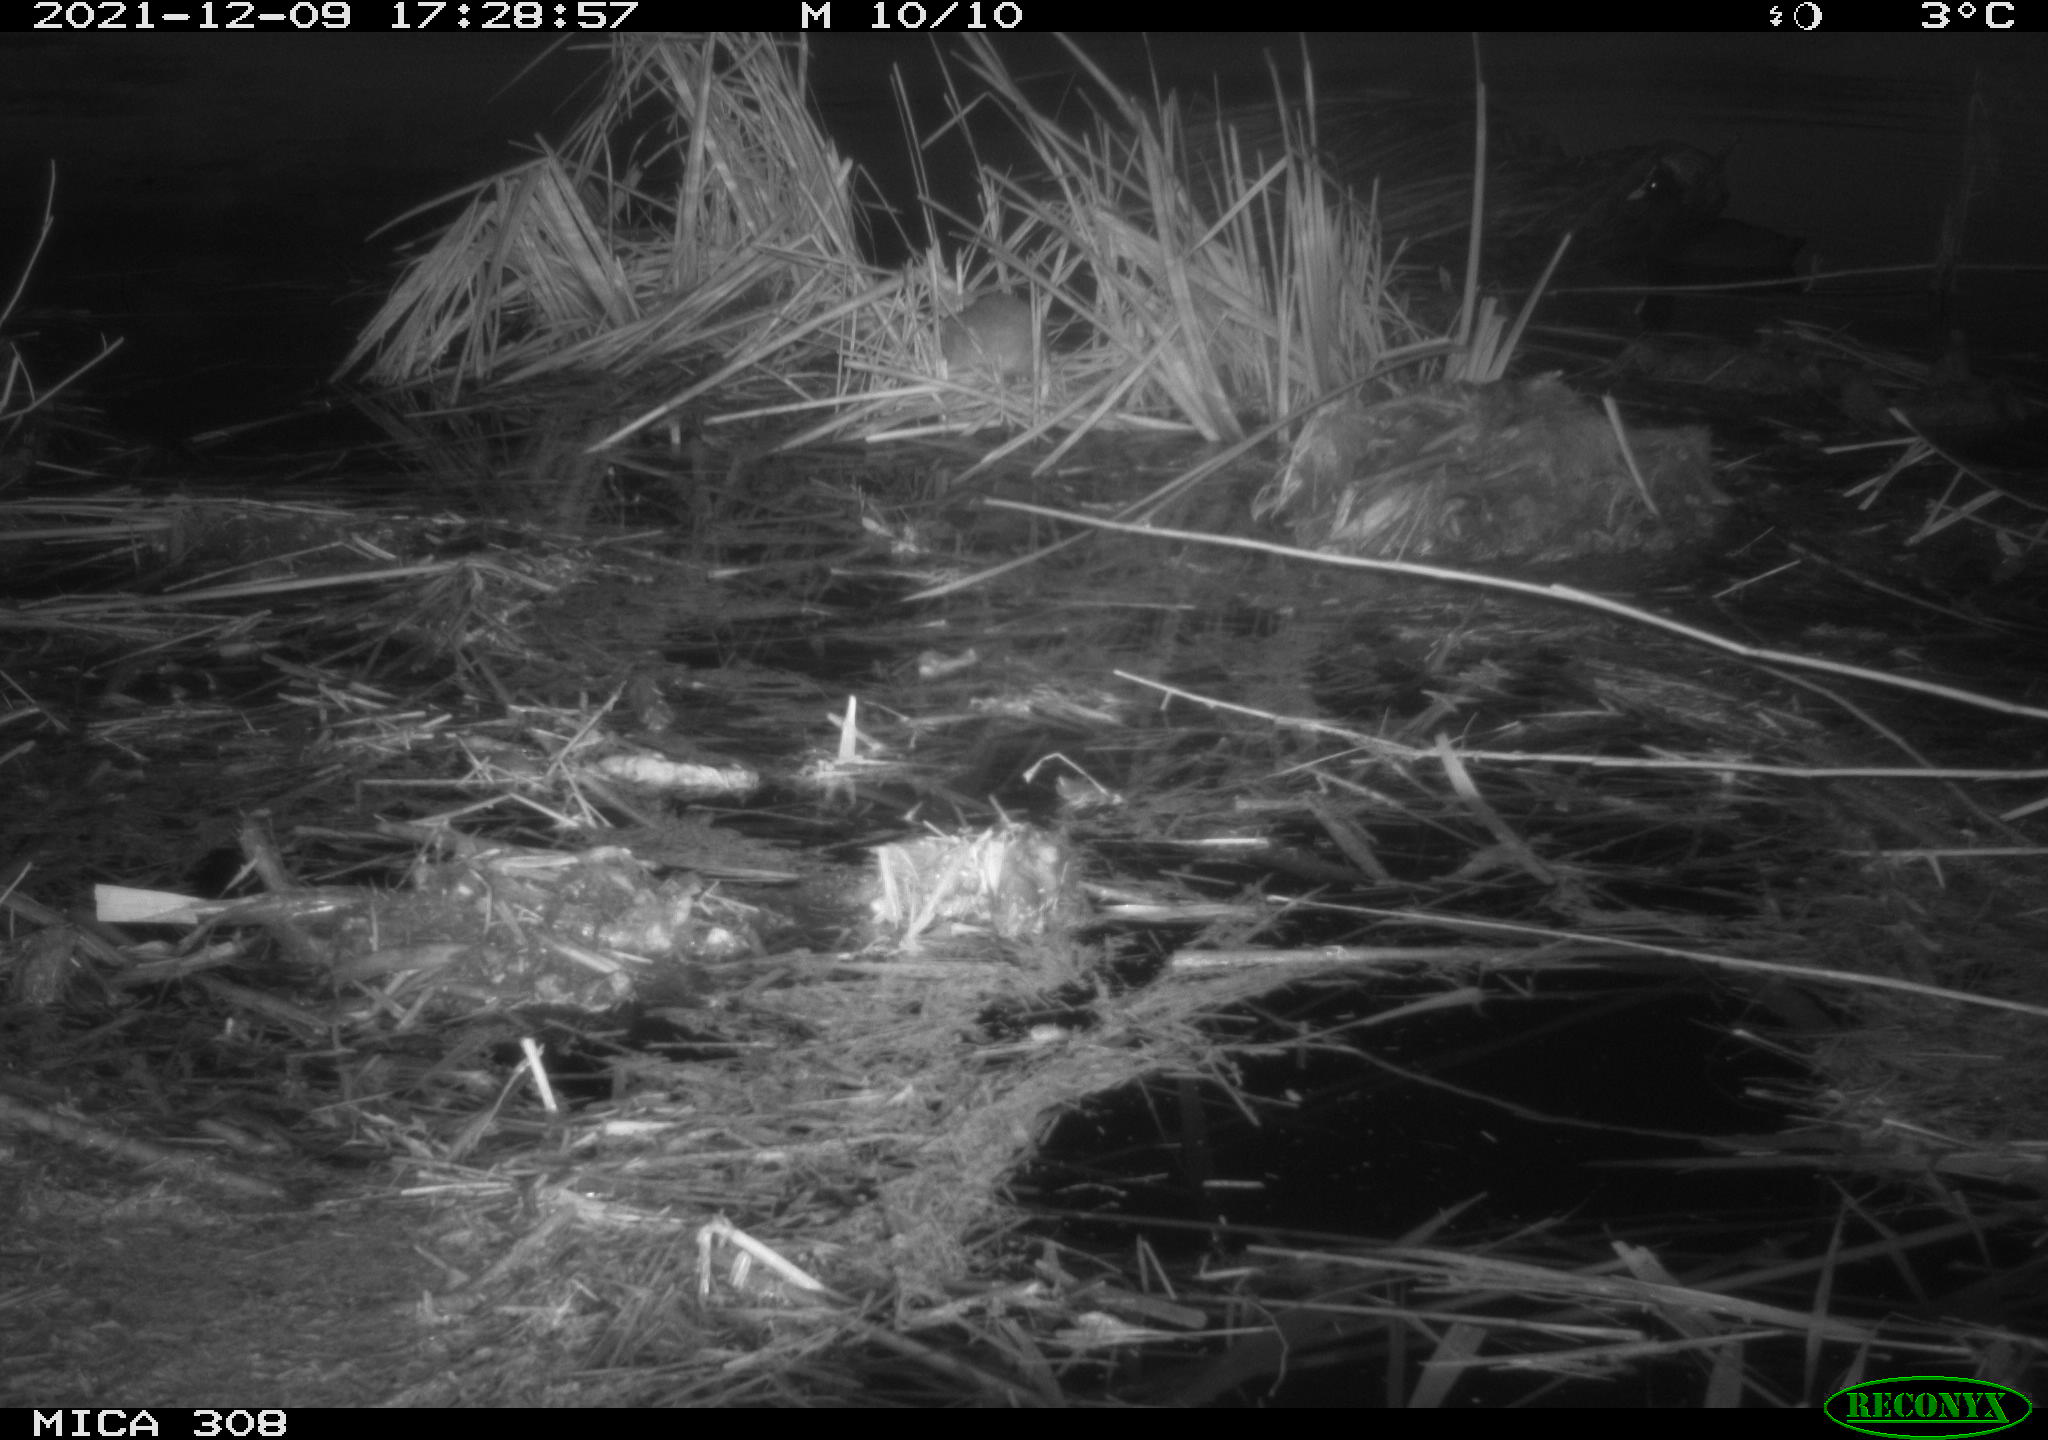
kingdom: Animalia
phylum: Chordata
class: Mammalia
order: Rodentia
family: Muridae
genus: Rattus
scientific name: Rattus norvegicus
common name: Brown rat
